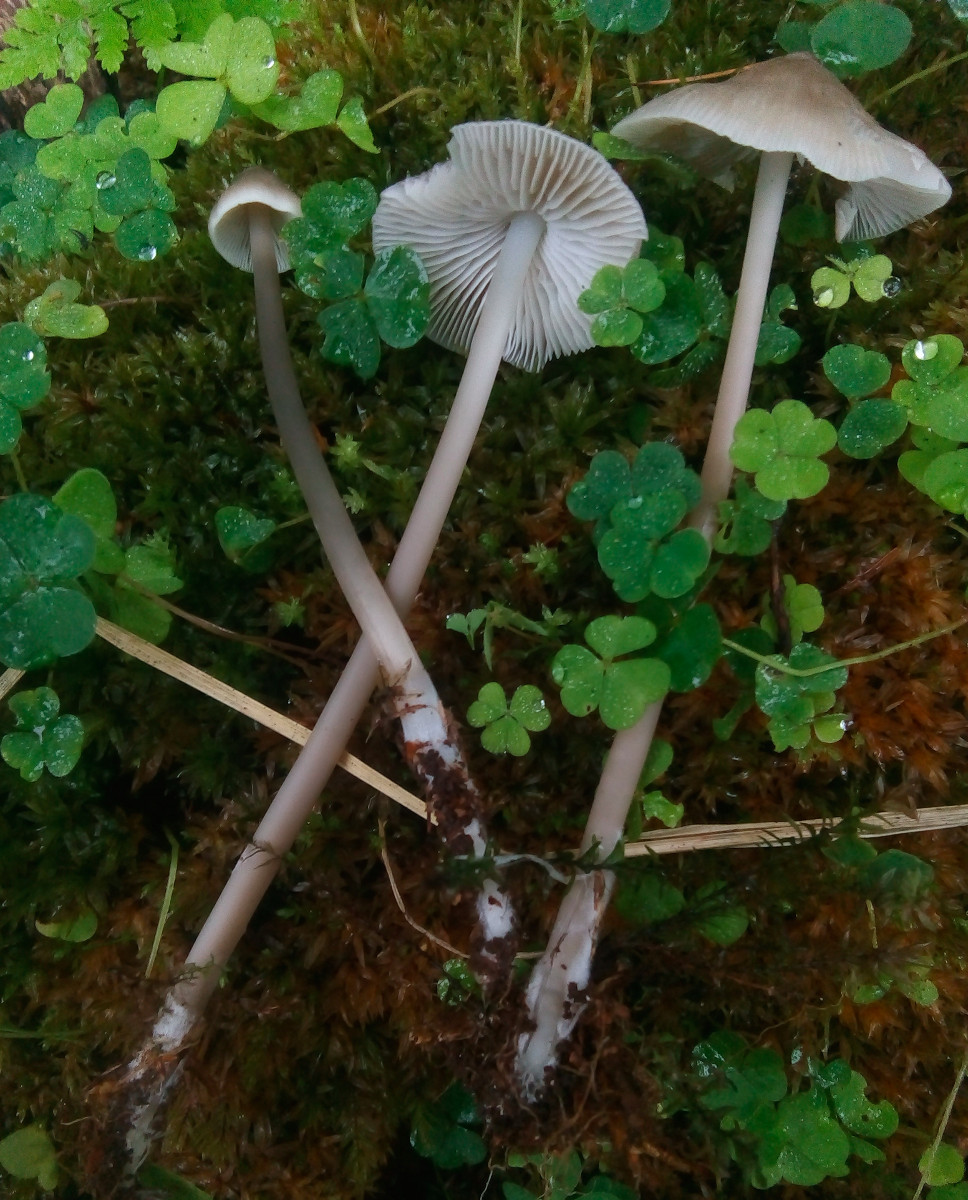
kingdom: Fungi
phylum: Basidiomycota
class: Agaricomycetes
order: Agaricales
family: Mycenaceae
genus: Mycena
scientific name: Mycena galericulata
